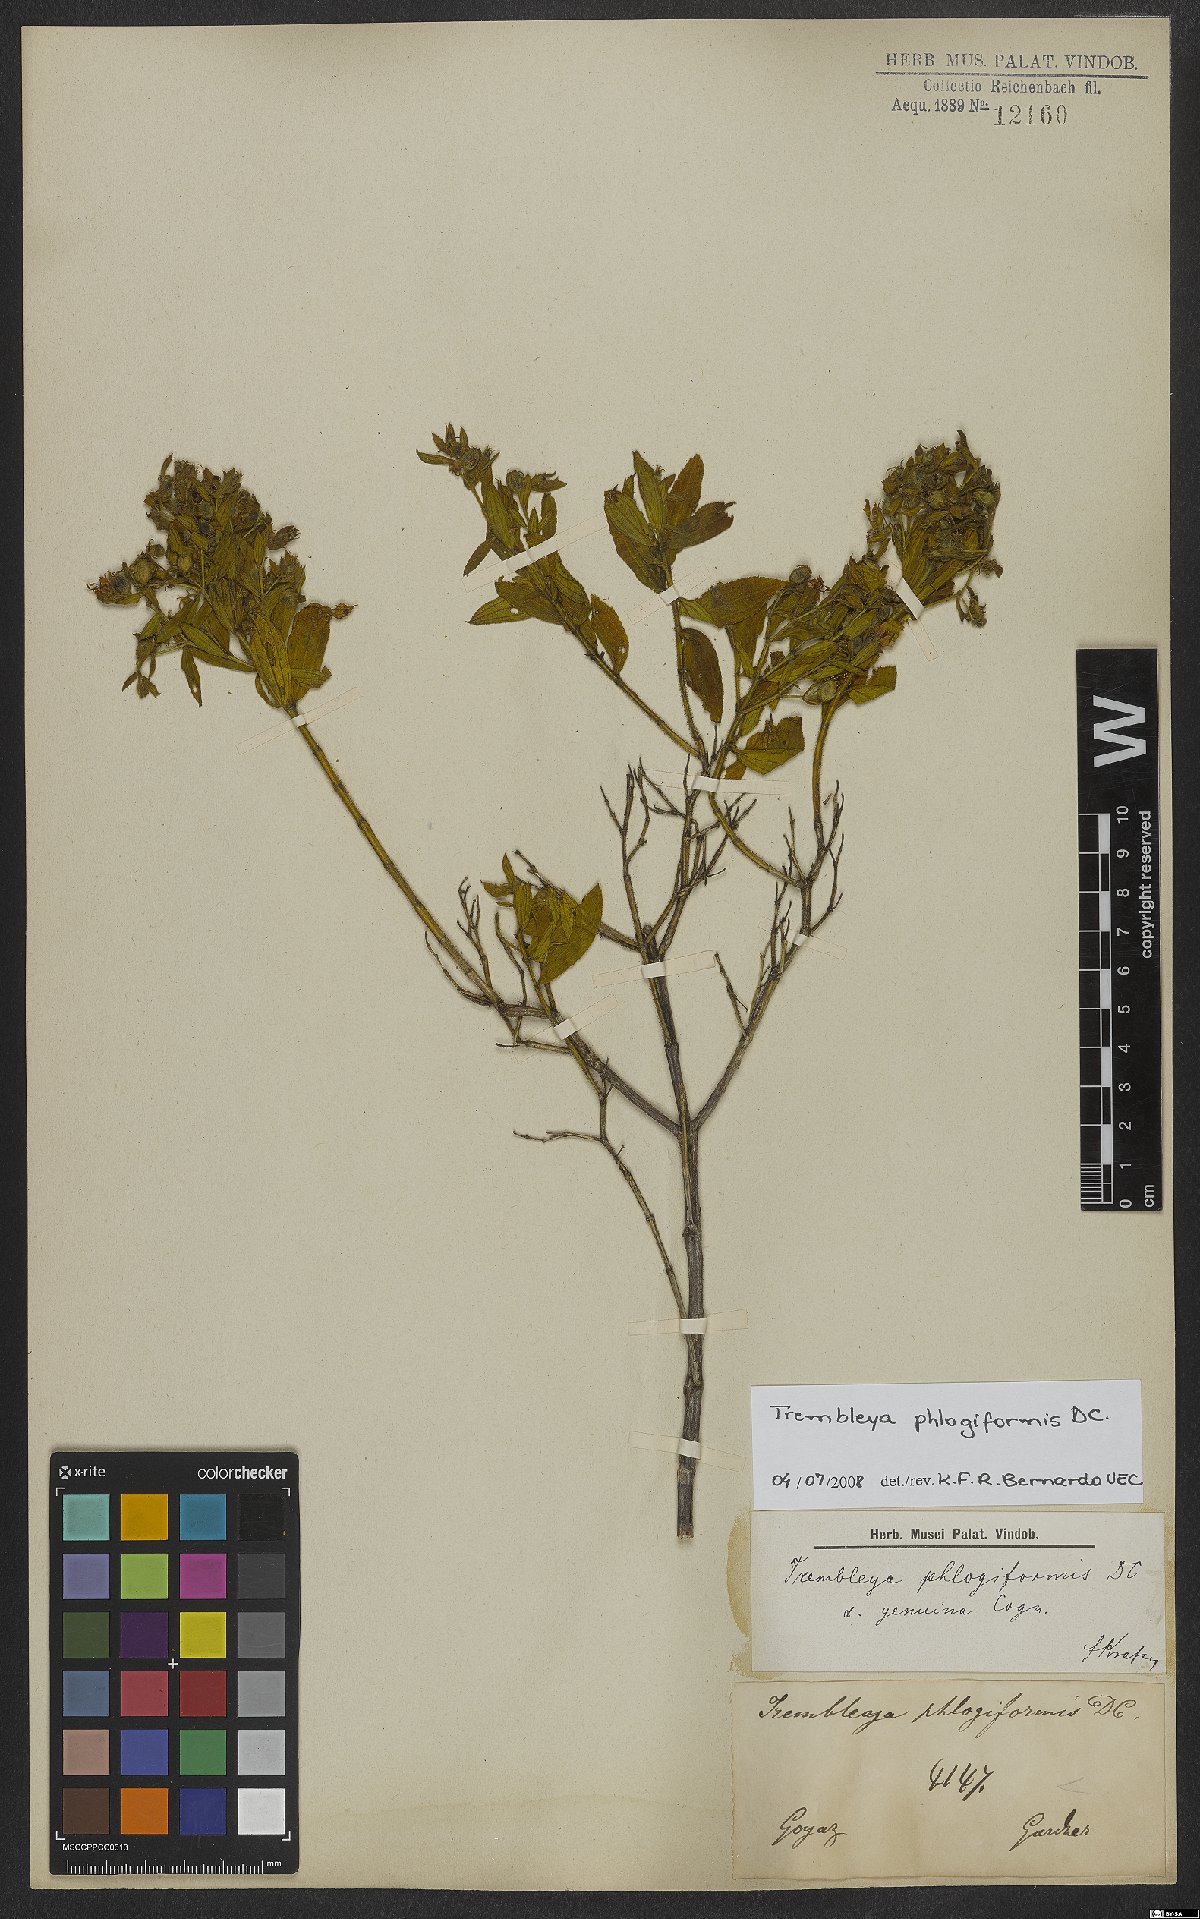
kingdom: Plantae
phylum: Tracheophyta
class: Magnoliopsida
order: Myrtales
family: Melastomataceae
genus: Microlicia
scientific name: Microlicia phlogiformis
